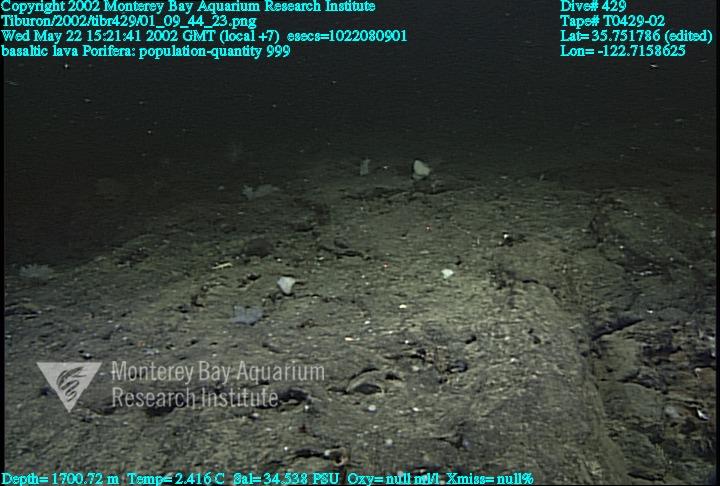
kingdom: Animalia
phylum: Porifera
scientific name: Porifera
